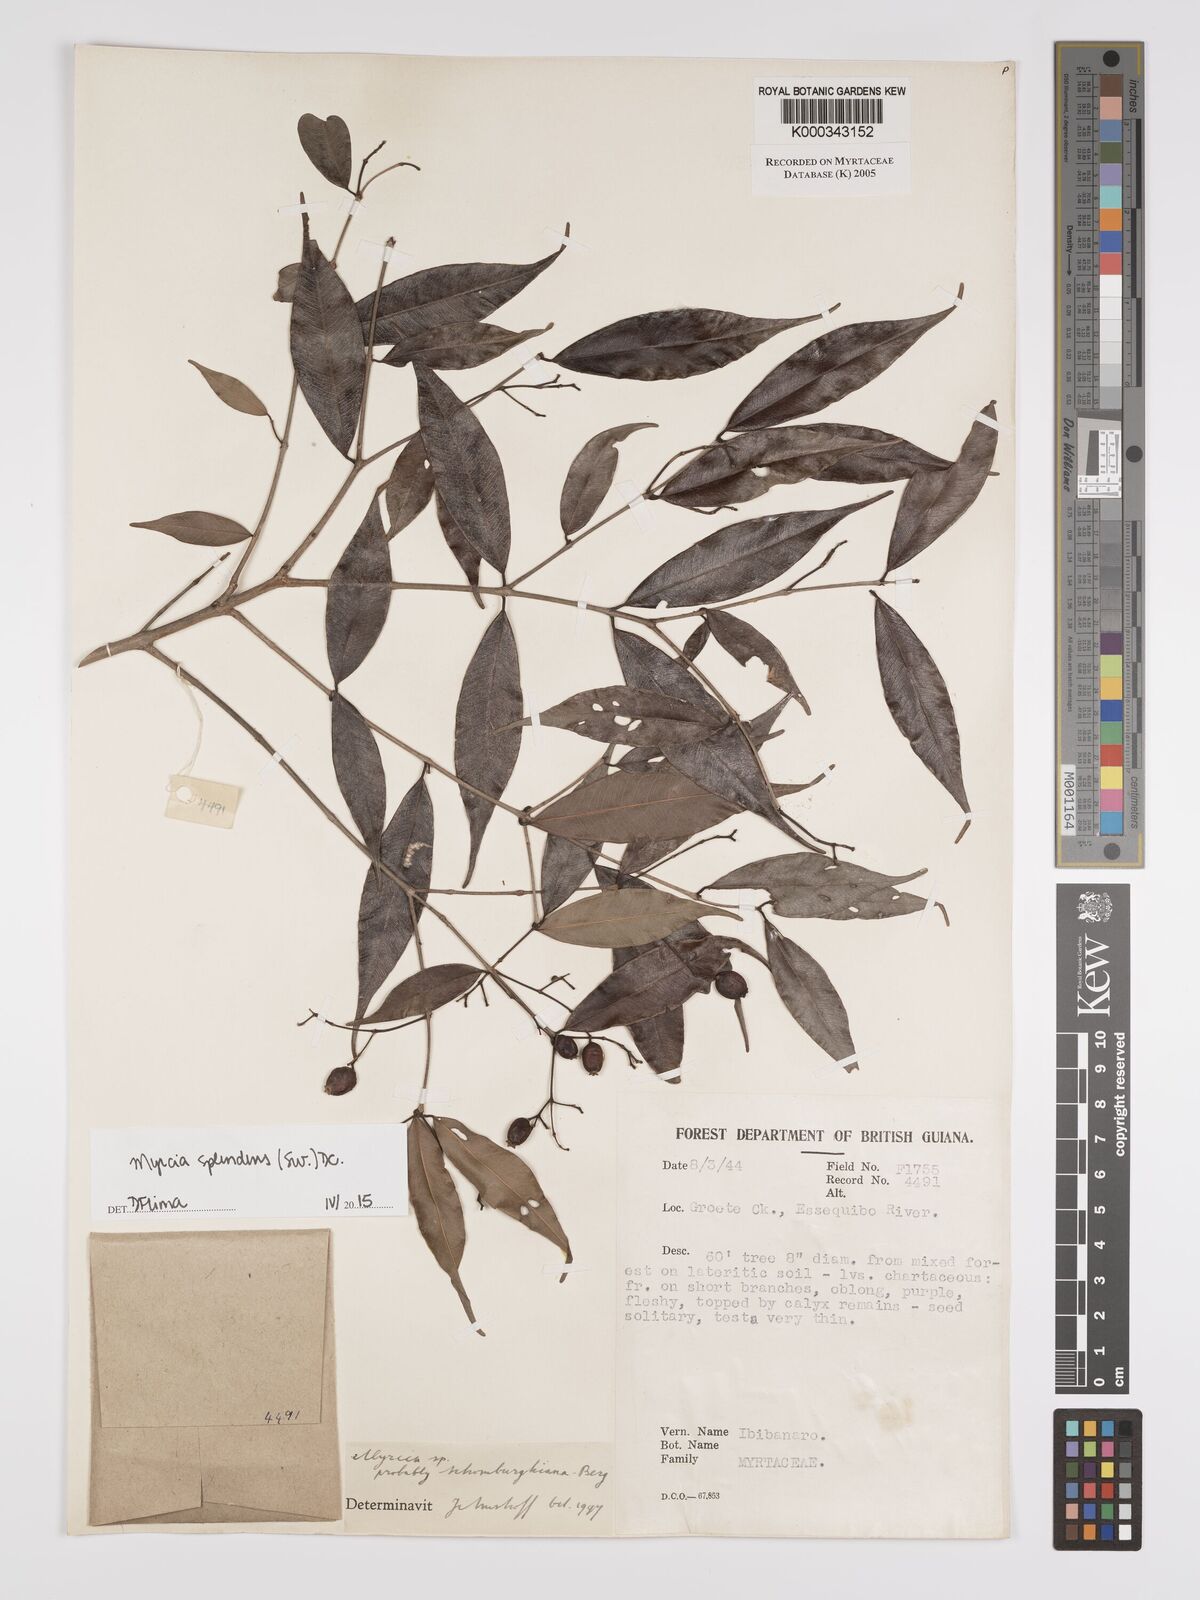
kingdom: Plantae
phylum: Tracheophyta
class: Magnoliopsida
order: Myrtales
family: Myrtaceae
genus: Myrcia
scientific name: Myrcia guianensis
